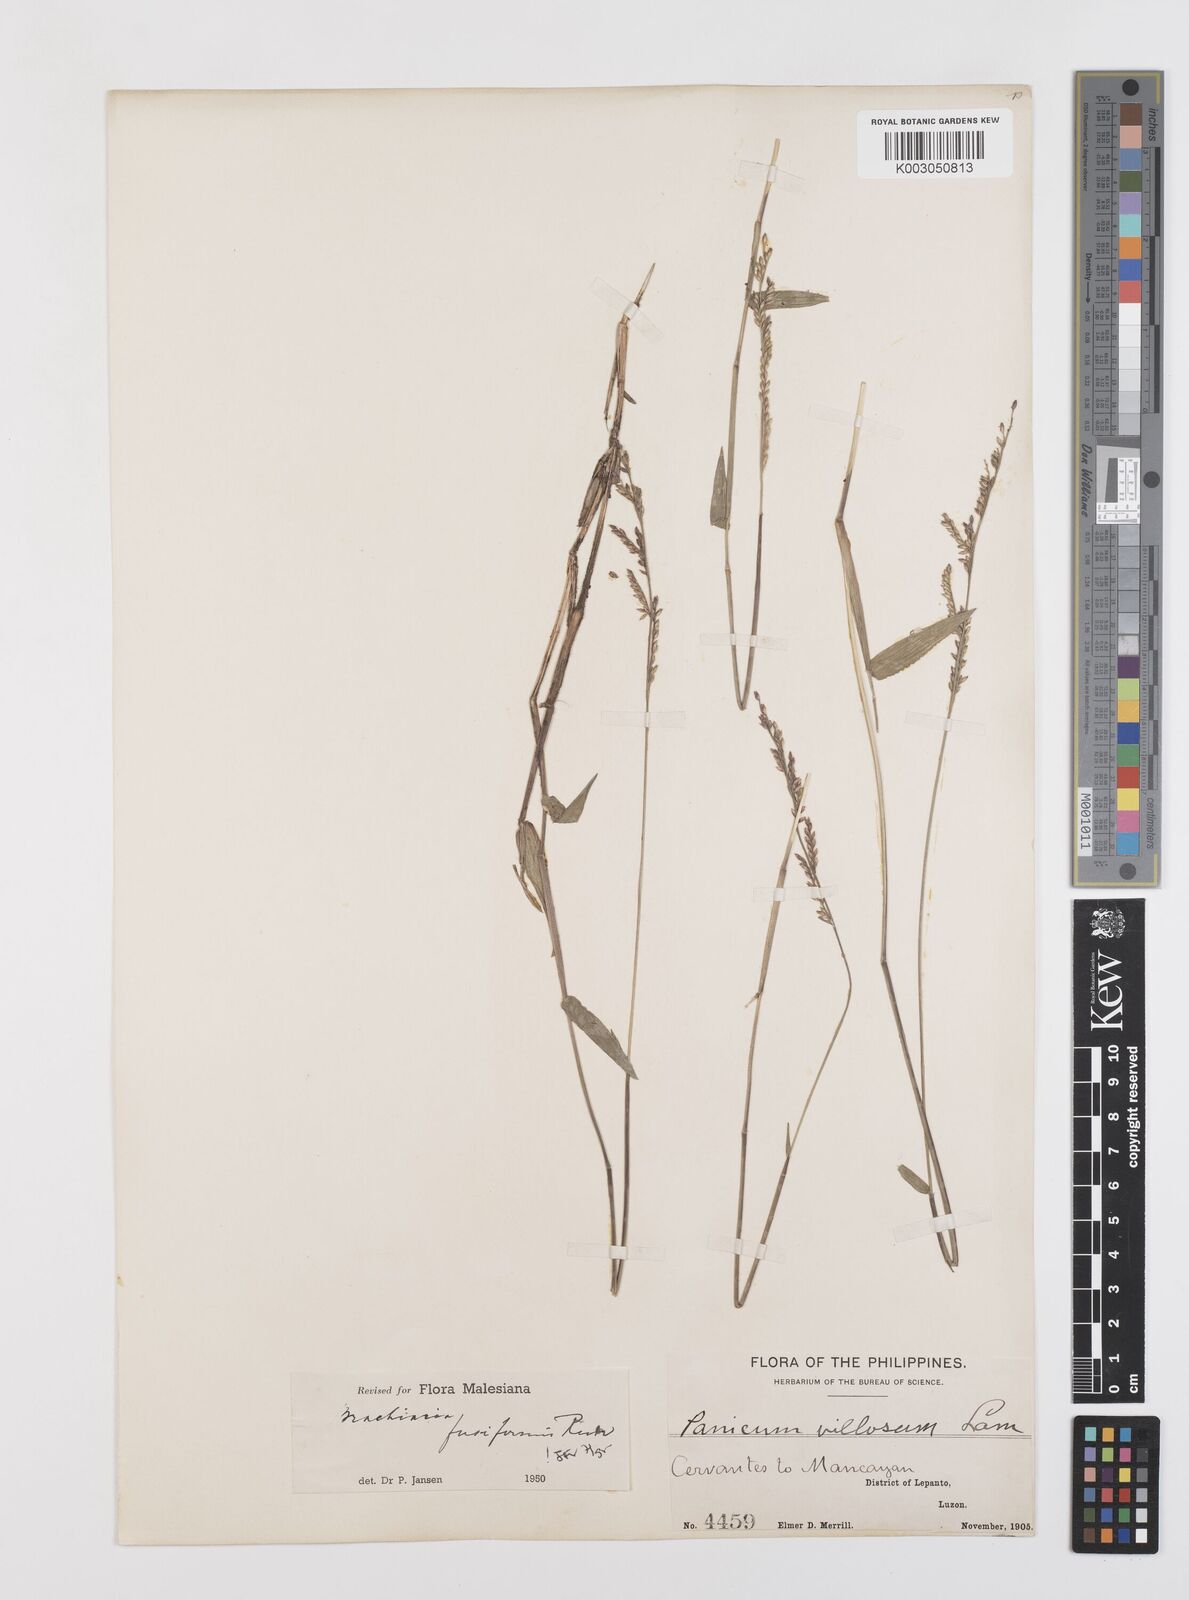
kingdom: Plantae
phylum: Tracheophyta
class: Liliopsida
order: Poales
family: Poaceae
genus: Urochloa
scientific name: Urochloa fusiformis
